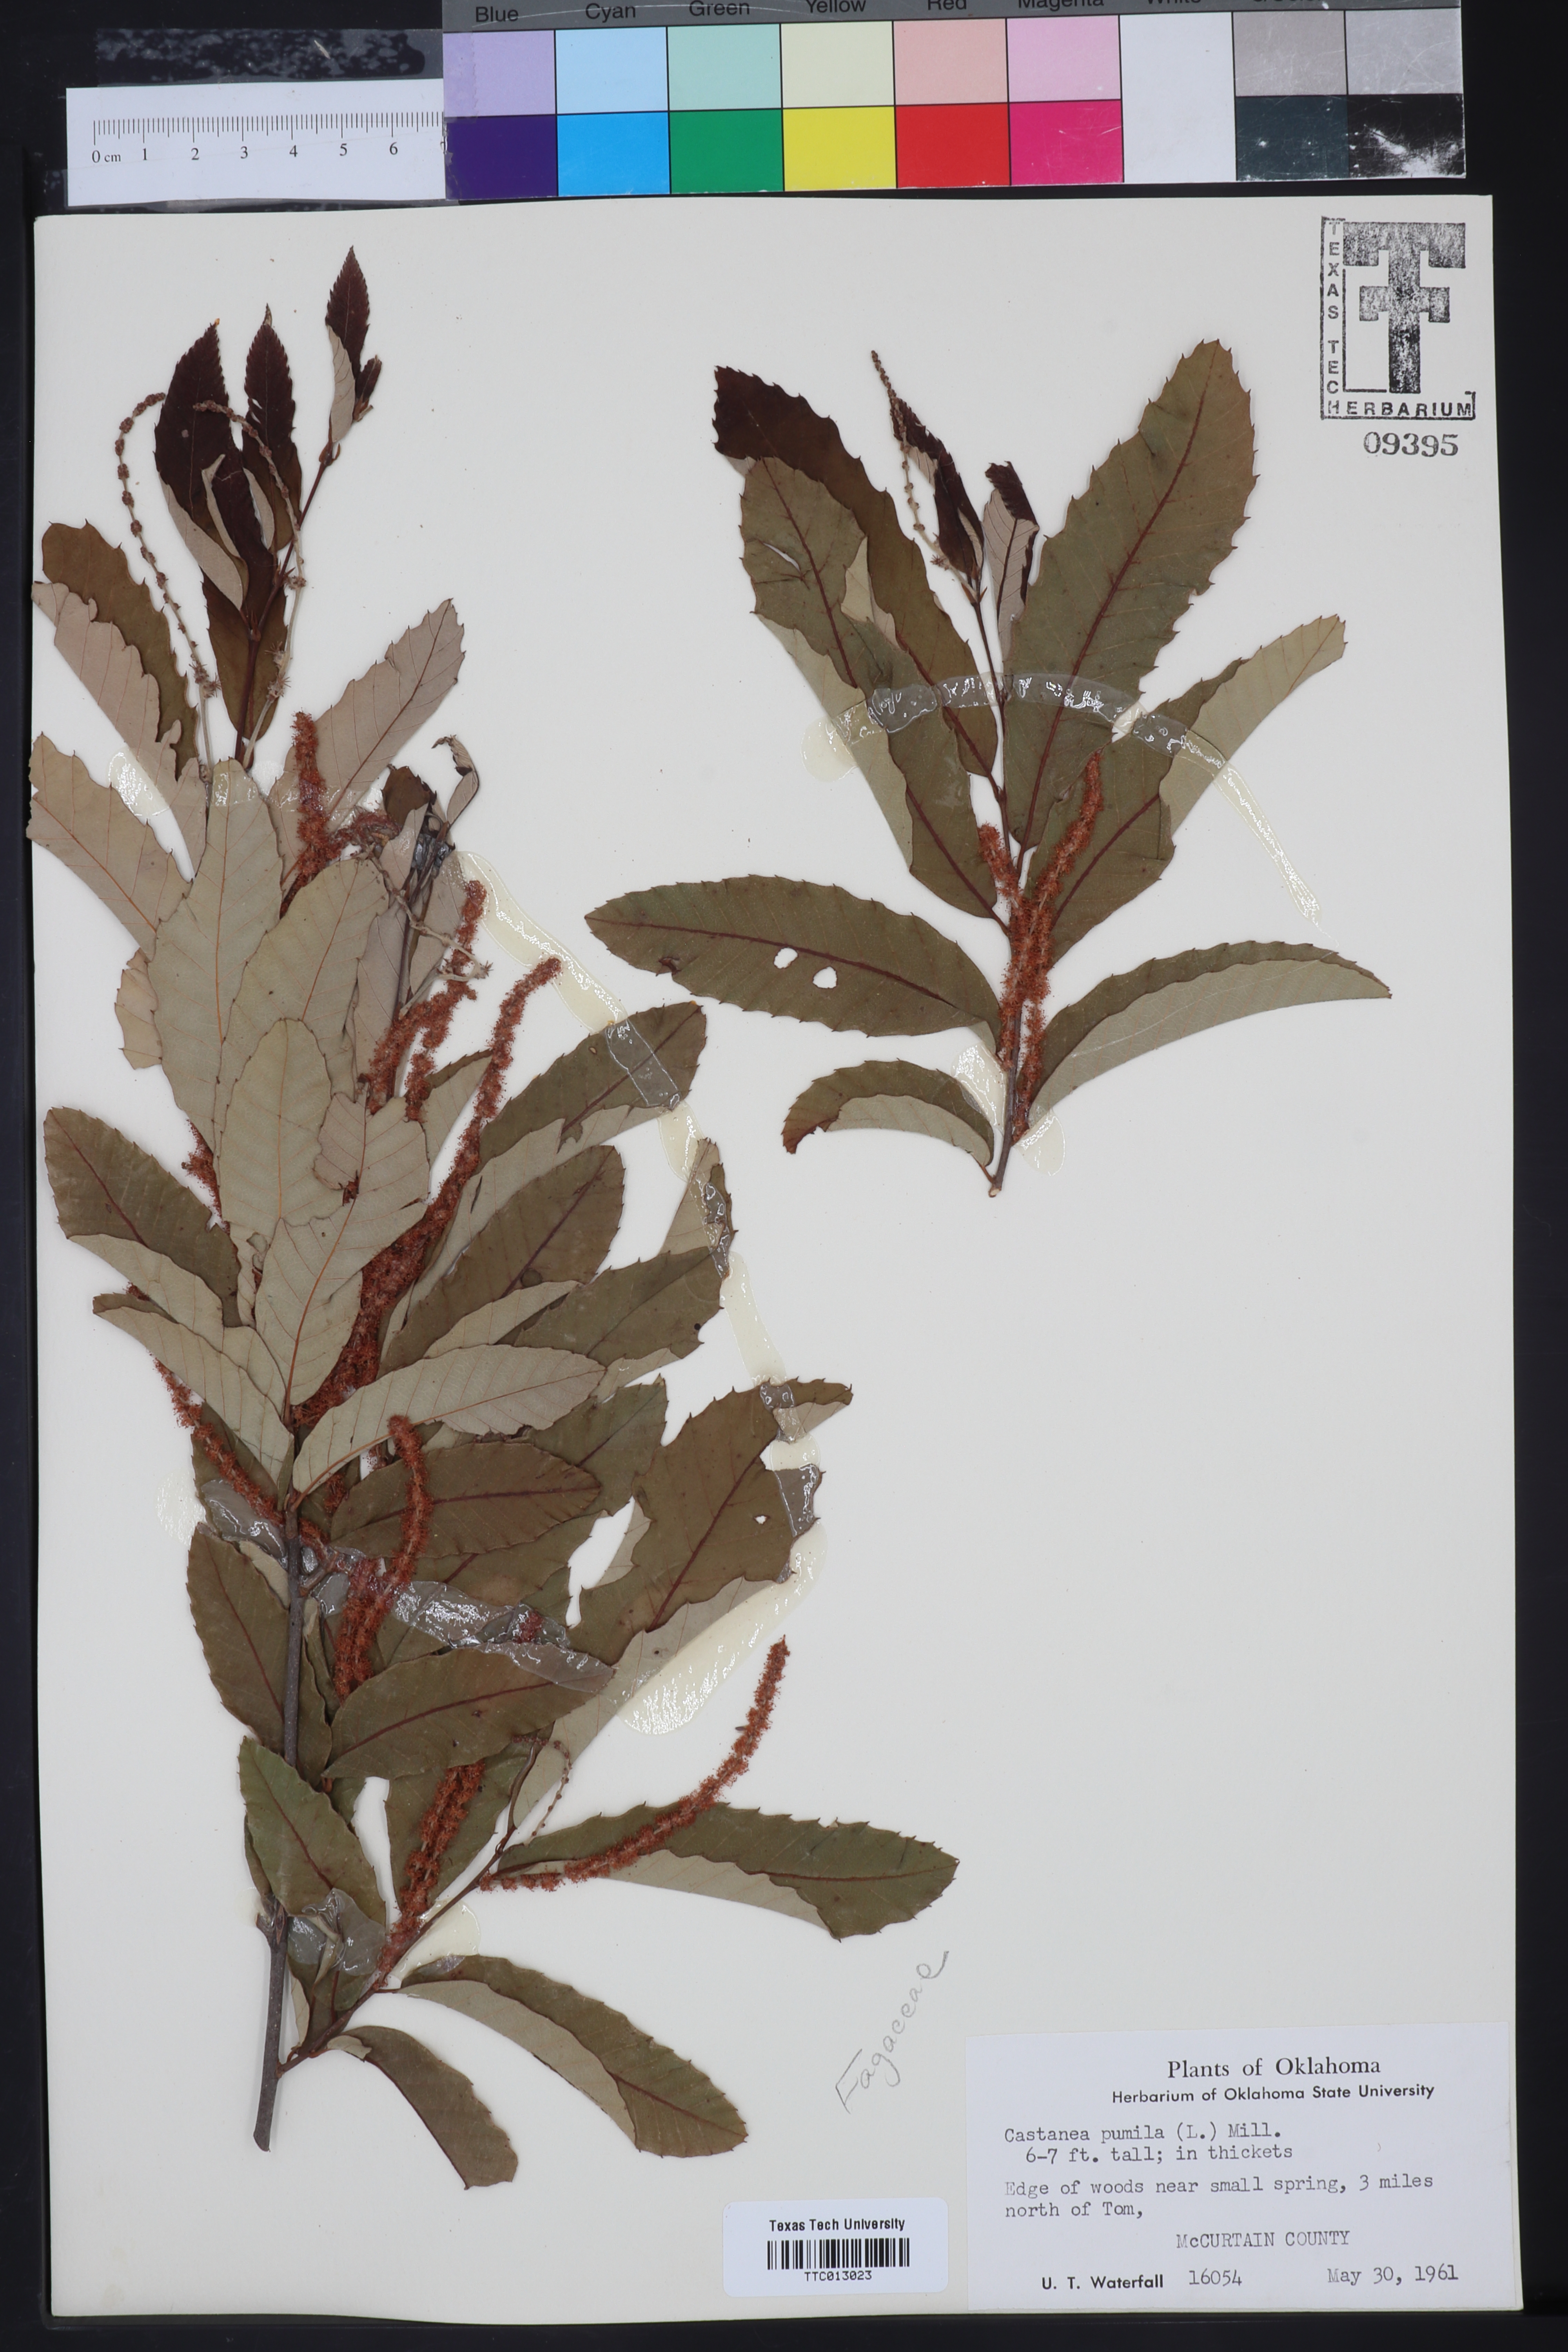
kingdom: Plantae
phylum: Tracheophyta
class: Magnoliopsida
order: Fagales
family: Fagaceae
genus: Castanea
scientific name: Castanea pumila
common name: Chinkapin
